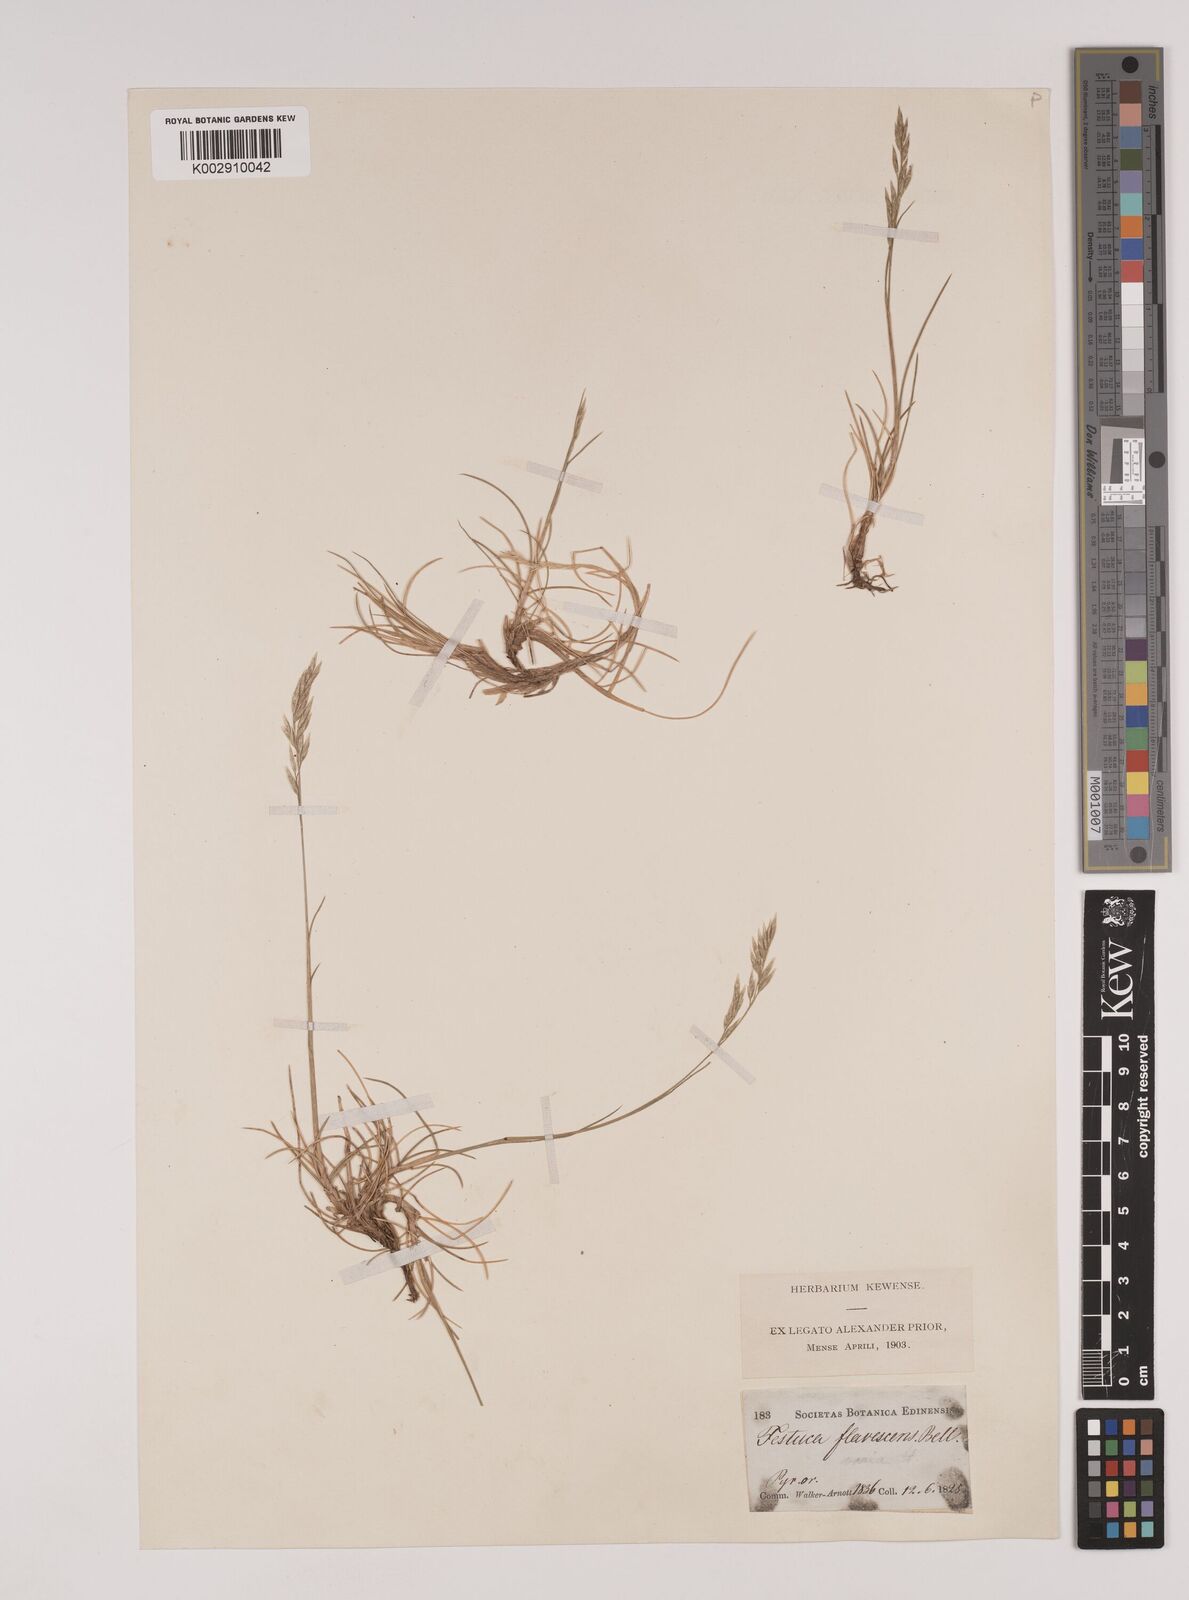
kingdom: Plantae
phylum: Tracheophyta
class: Liliopsida
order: Poales
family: Poaceae
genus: Festuca
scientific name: Festuca gautieri
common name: Spiky fescue
